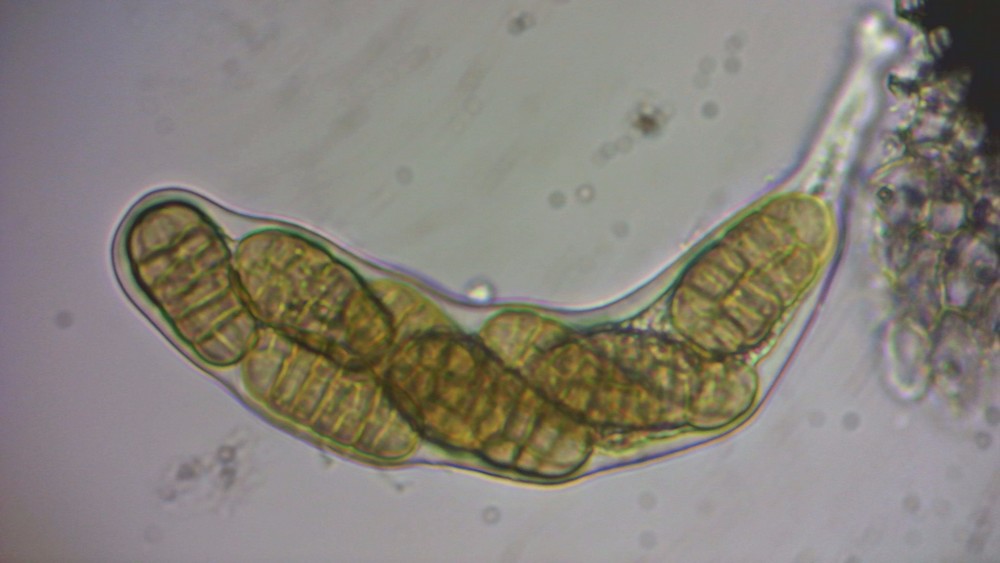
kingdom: Fungi
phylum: Ascomycota
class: Dothideomycetes
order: Pleosporales
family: Pleosporaceae
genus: Stemphylium
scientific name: Stemphylium vesicarium
